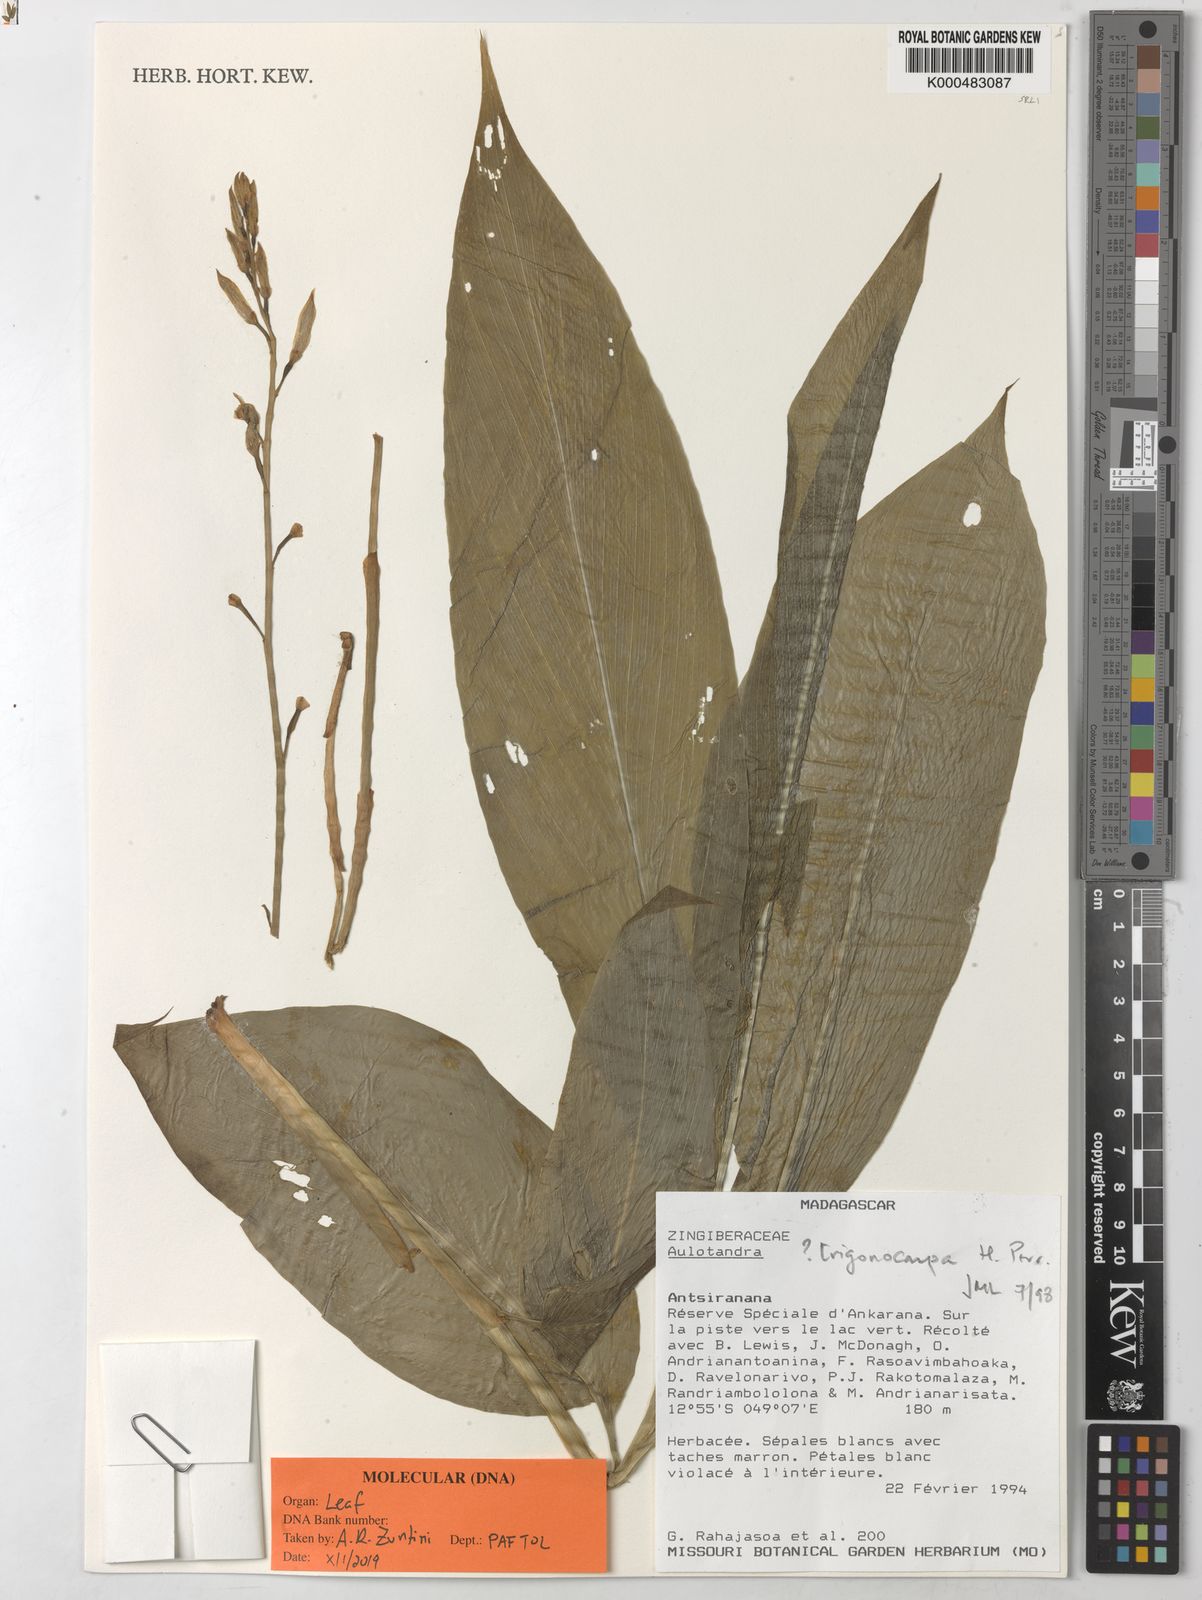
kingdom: Plantae
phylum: Tracheophyta
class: Liliopsida
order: Zingiberales
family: Zingiberaceae
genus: Aulotandra
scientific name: Aulotandra trigonocarpa
